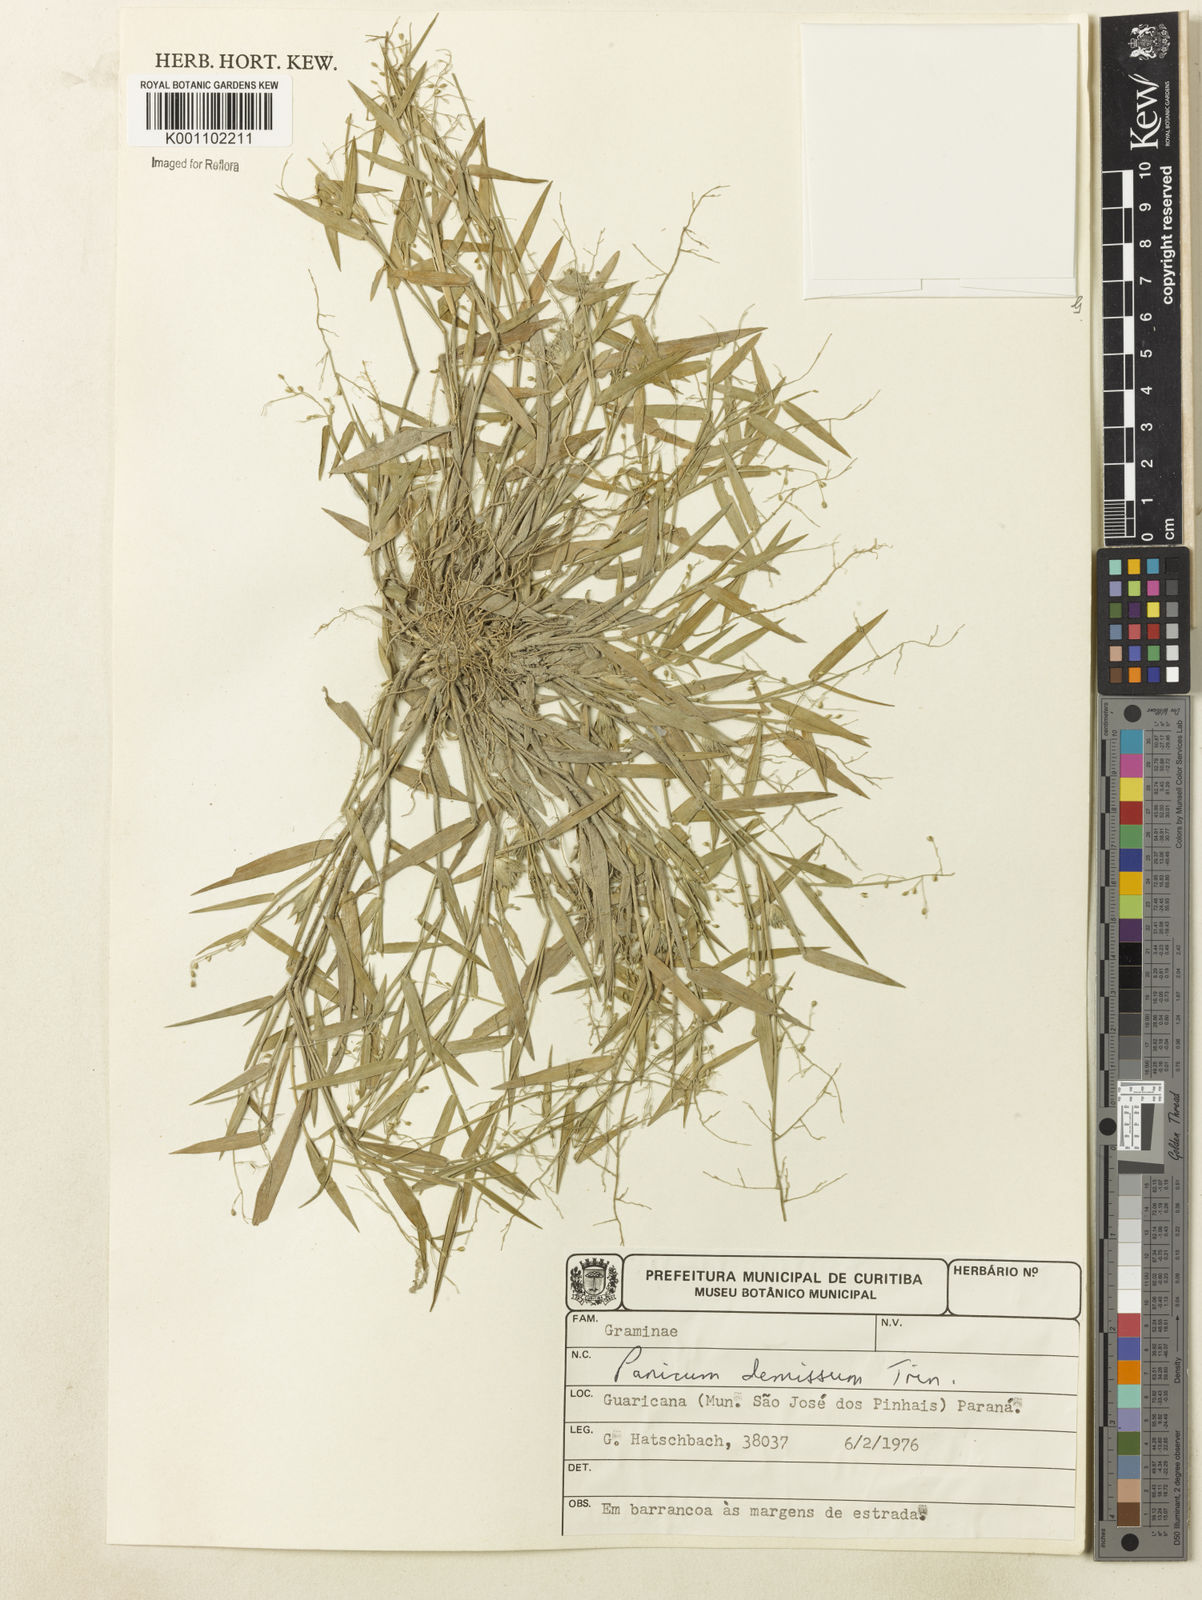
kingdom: Plantae
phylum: Tracheophyta
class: Liliopsida
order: Poales
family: Poaceae
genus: Dichanthelium
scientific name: Dichanthelium sabulorum
